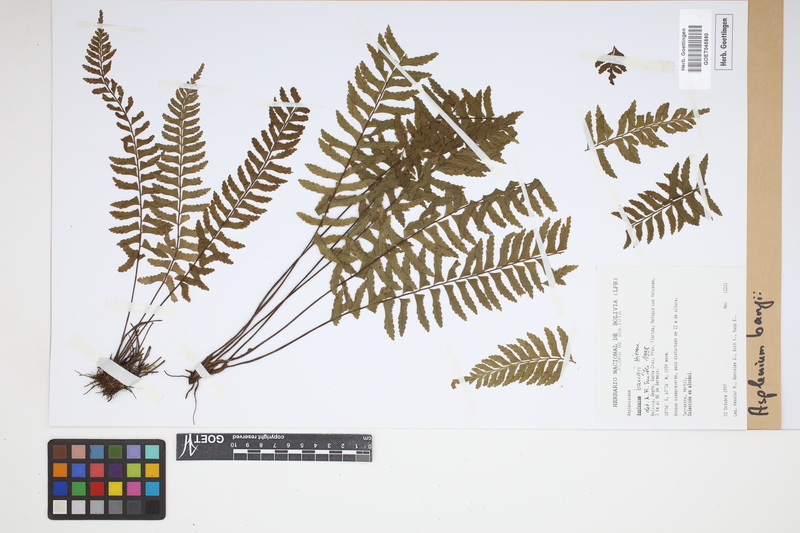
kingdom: Plantae
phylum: Tracheophyta
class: Polypodiopsida
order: Polypodiales
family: Aspleniaceae
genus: Asplenium
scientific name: Asplenium bangii
